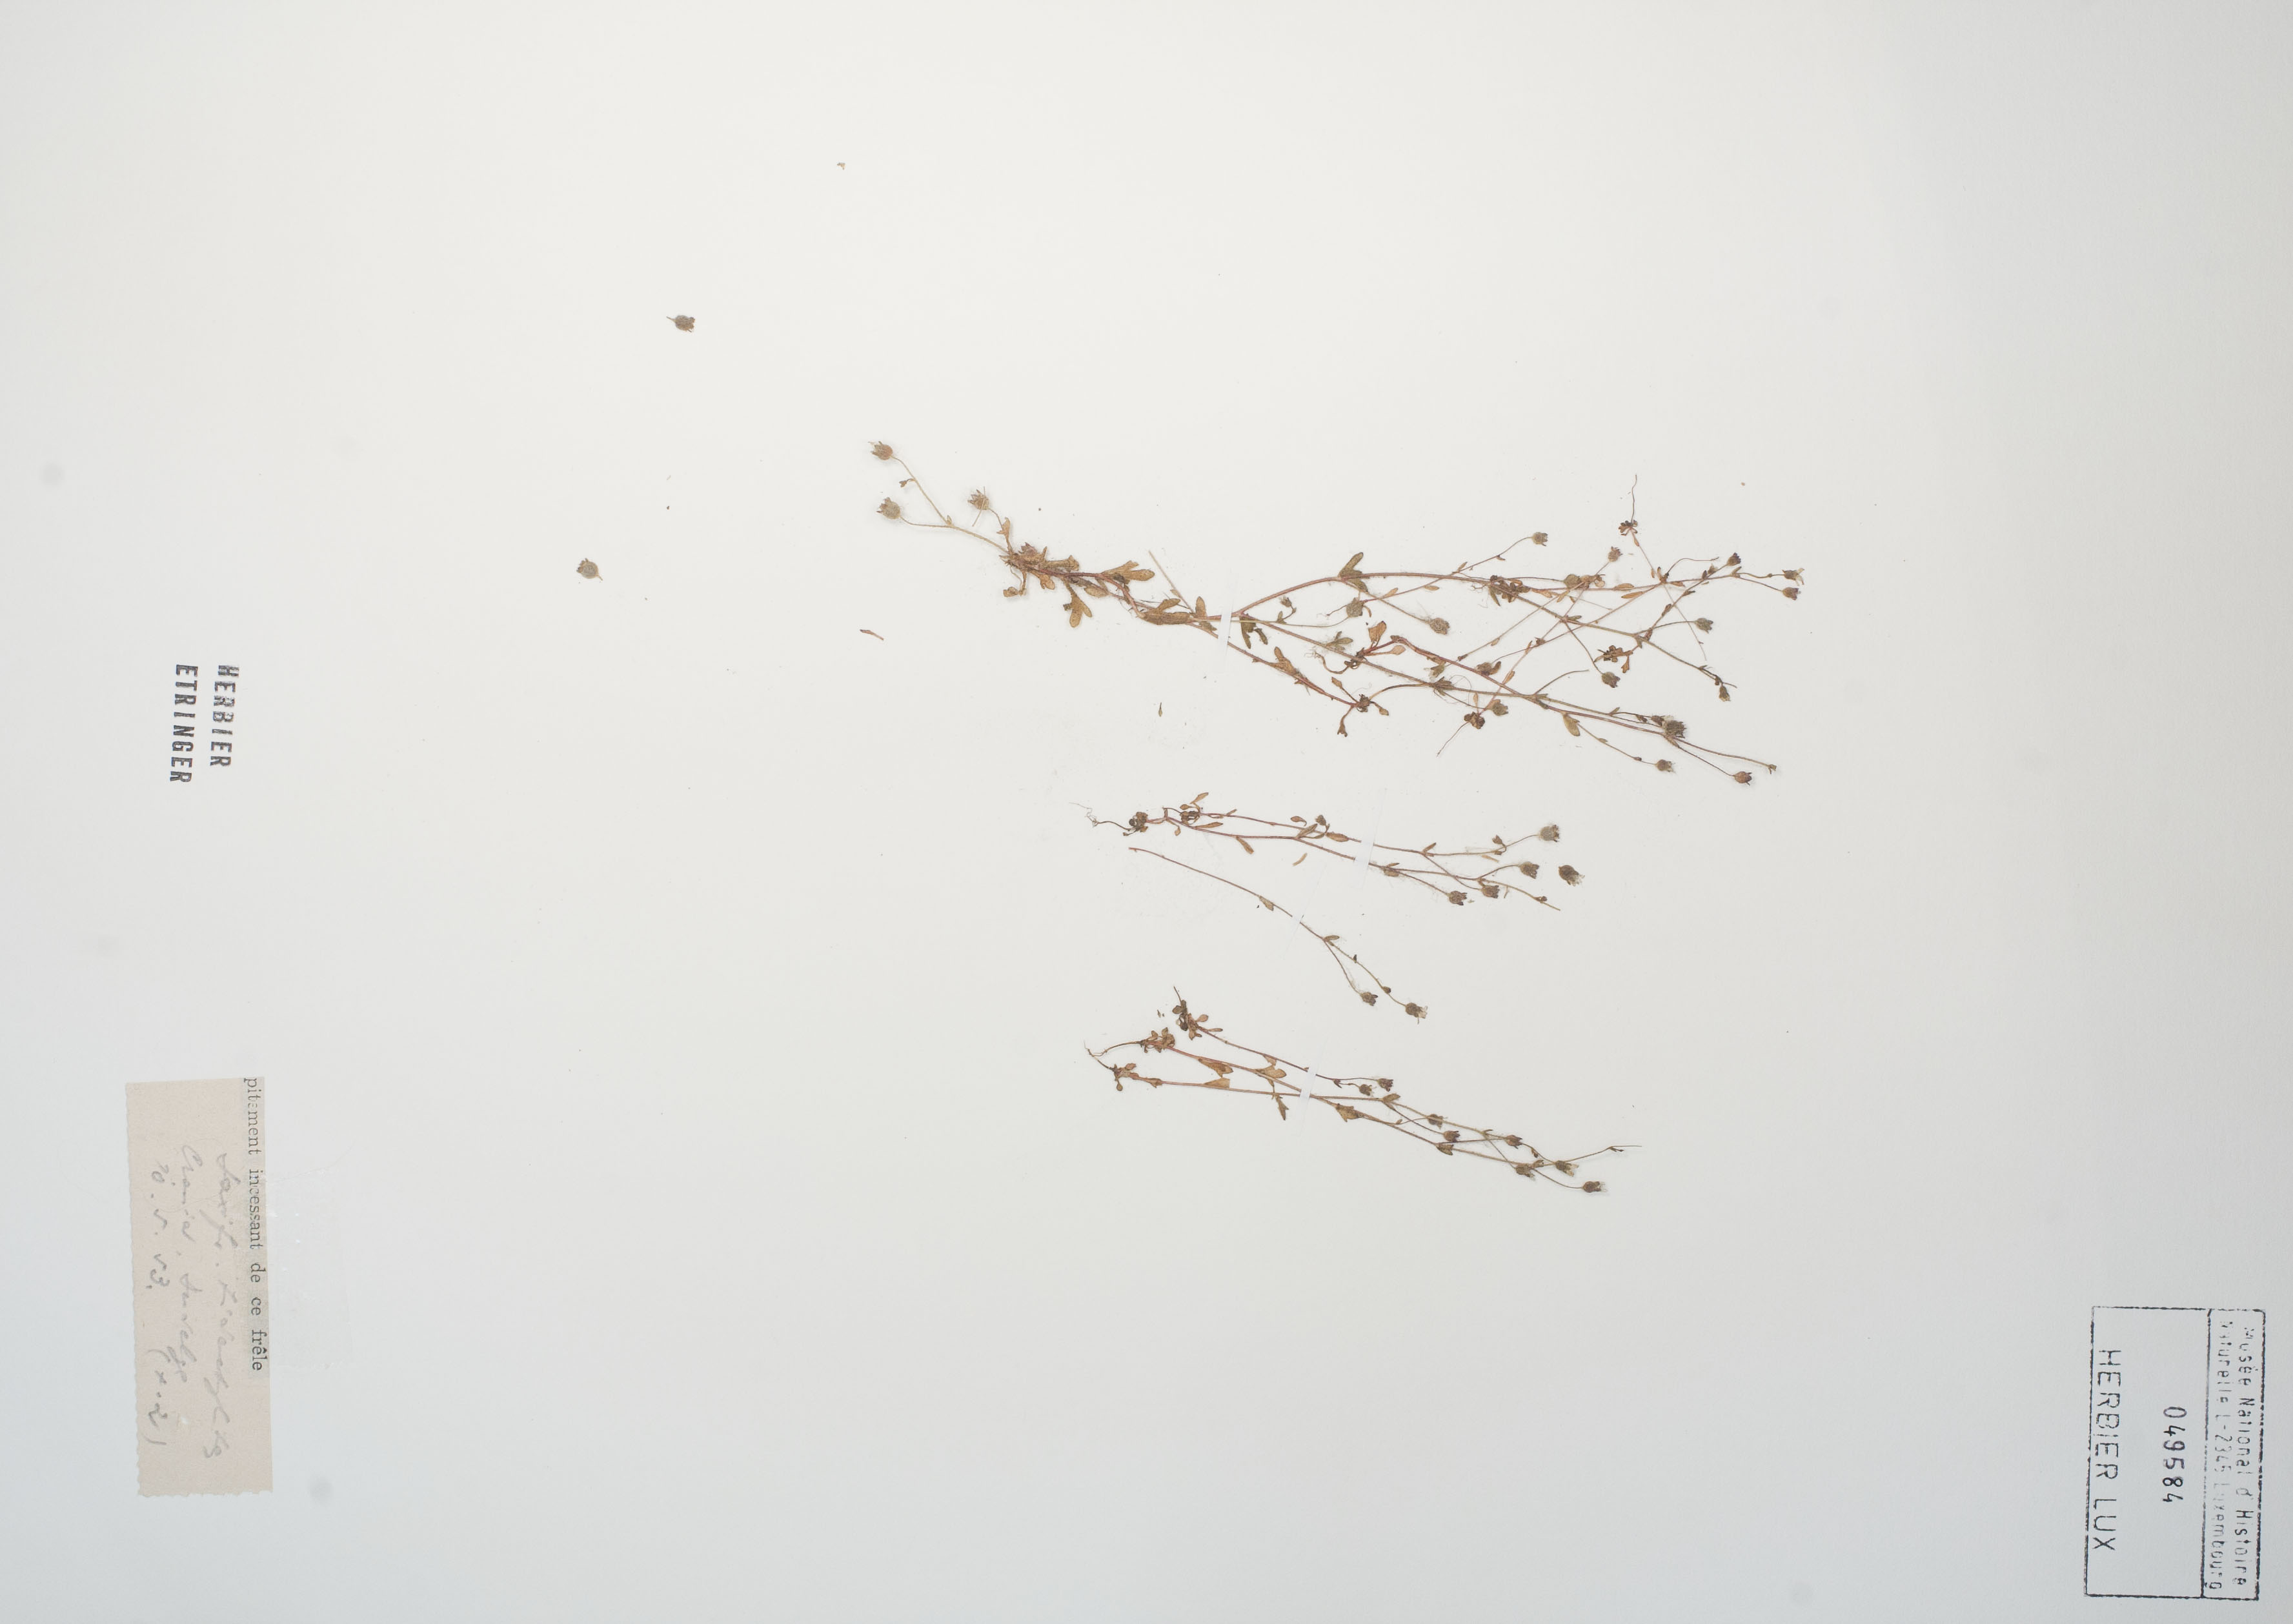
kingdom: Plantae
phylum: Tracheophyta
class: Magnoliopsida
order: Saxifragales
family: Saxifragaceae
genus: Saxifraga
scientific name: Saxifraga tridactylites
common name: Rue-leaved saxifrage
